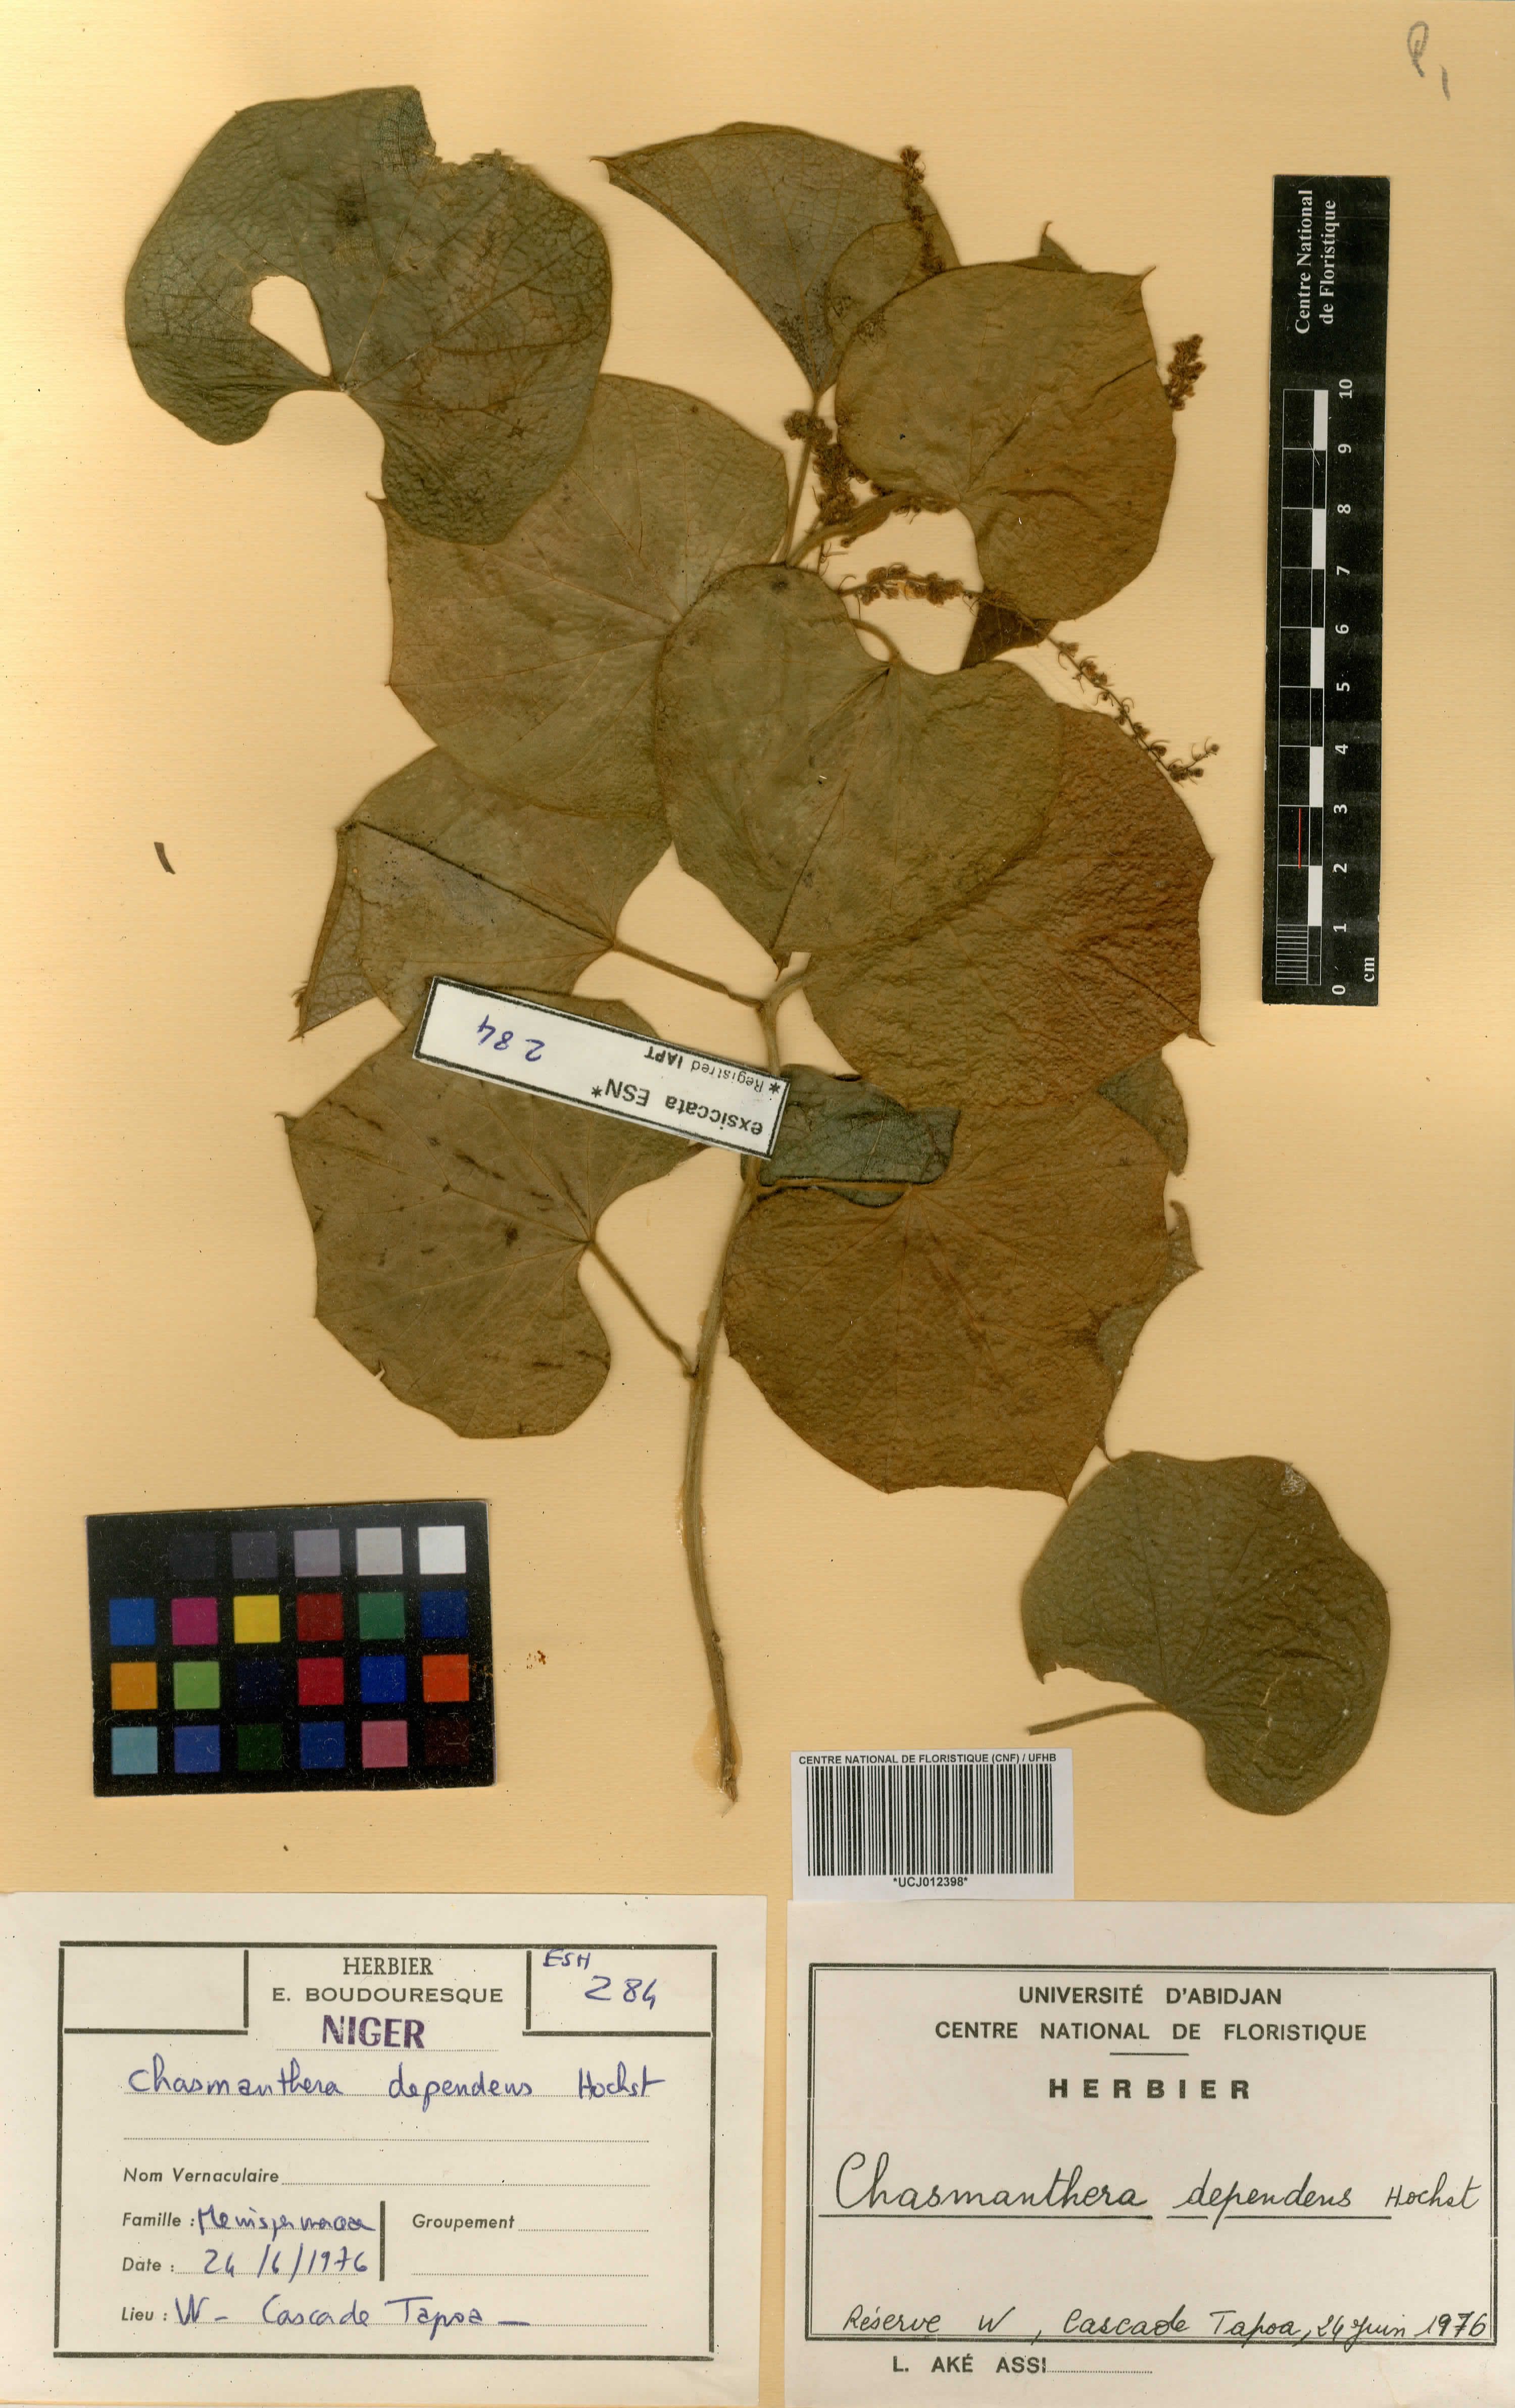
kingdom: Plantae
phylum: Tracheophyta
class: Magnoliopsida
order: Ranunculales
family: Menispermaceae
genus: Chasmanthera
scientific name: Chasmanthera dependens
